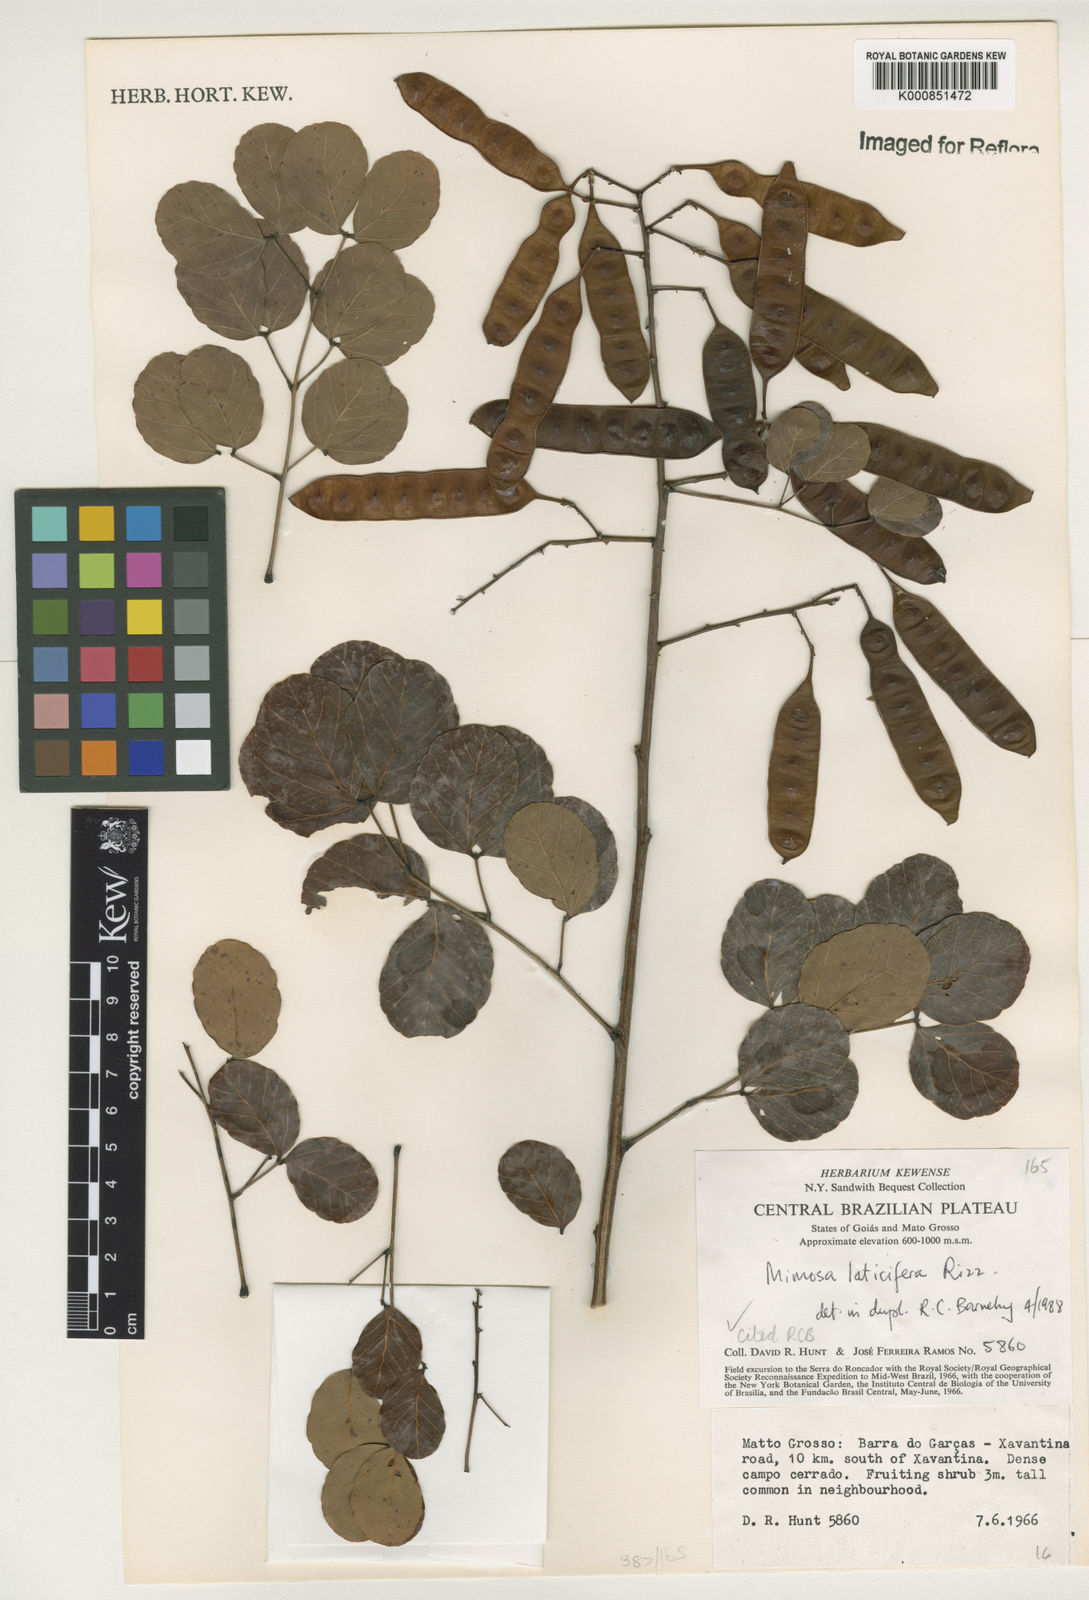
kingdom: Plantae
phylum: Tracheophyta
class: Magnoliopsida
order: Fabales
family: Fabaceae
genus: Mimosa
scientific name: Mimosa laticifera
